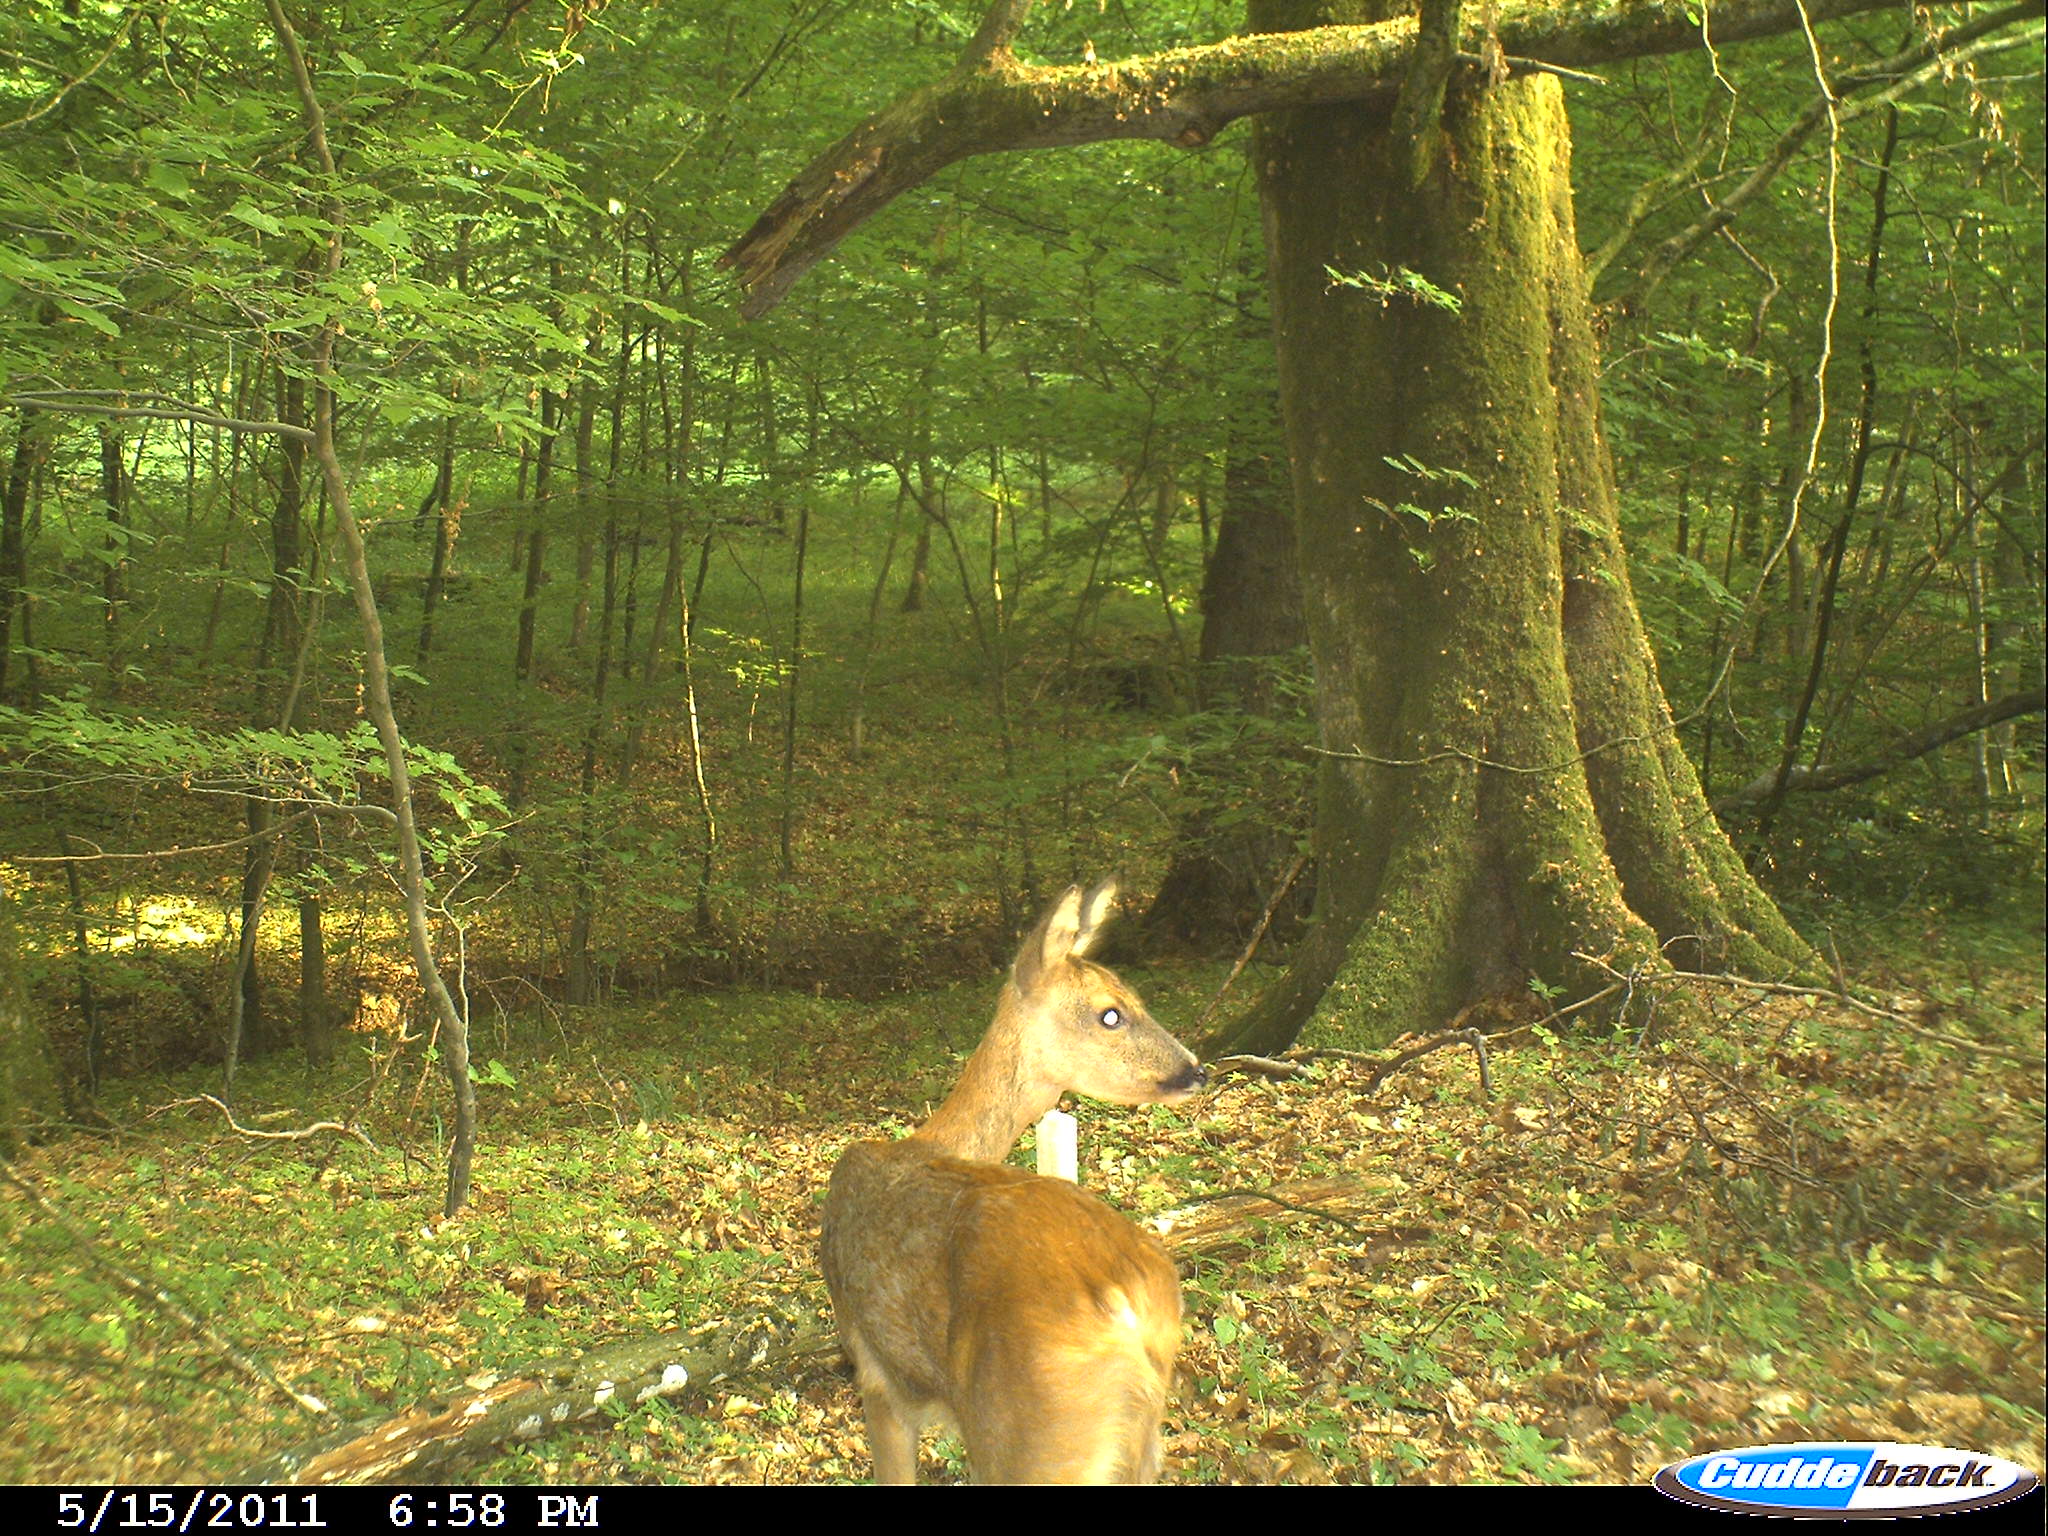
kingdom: Animalia
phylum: Chordata
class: Mammalia
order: Artiodactyla
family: Cervidae
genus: Capreolus
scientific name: Capreolus capreolus
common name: Western roe deer
